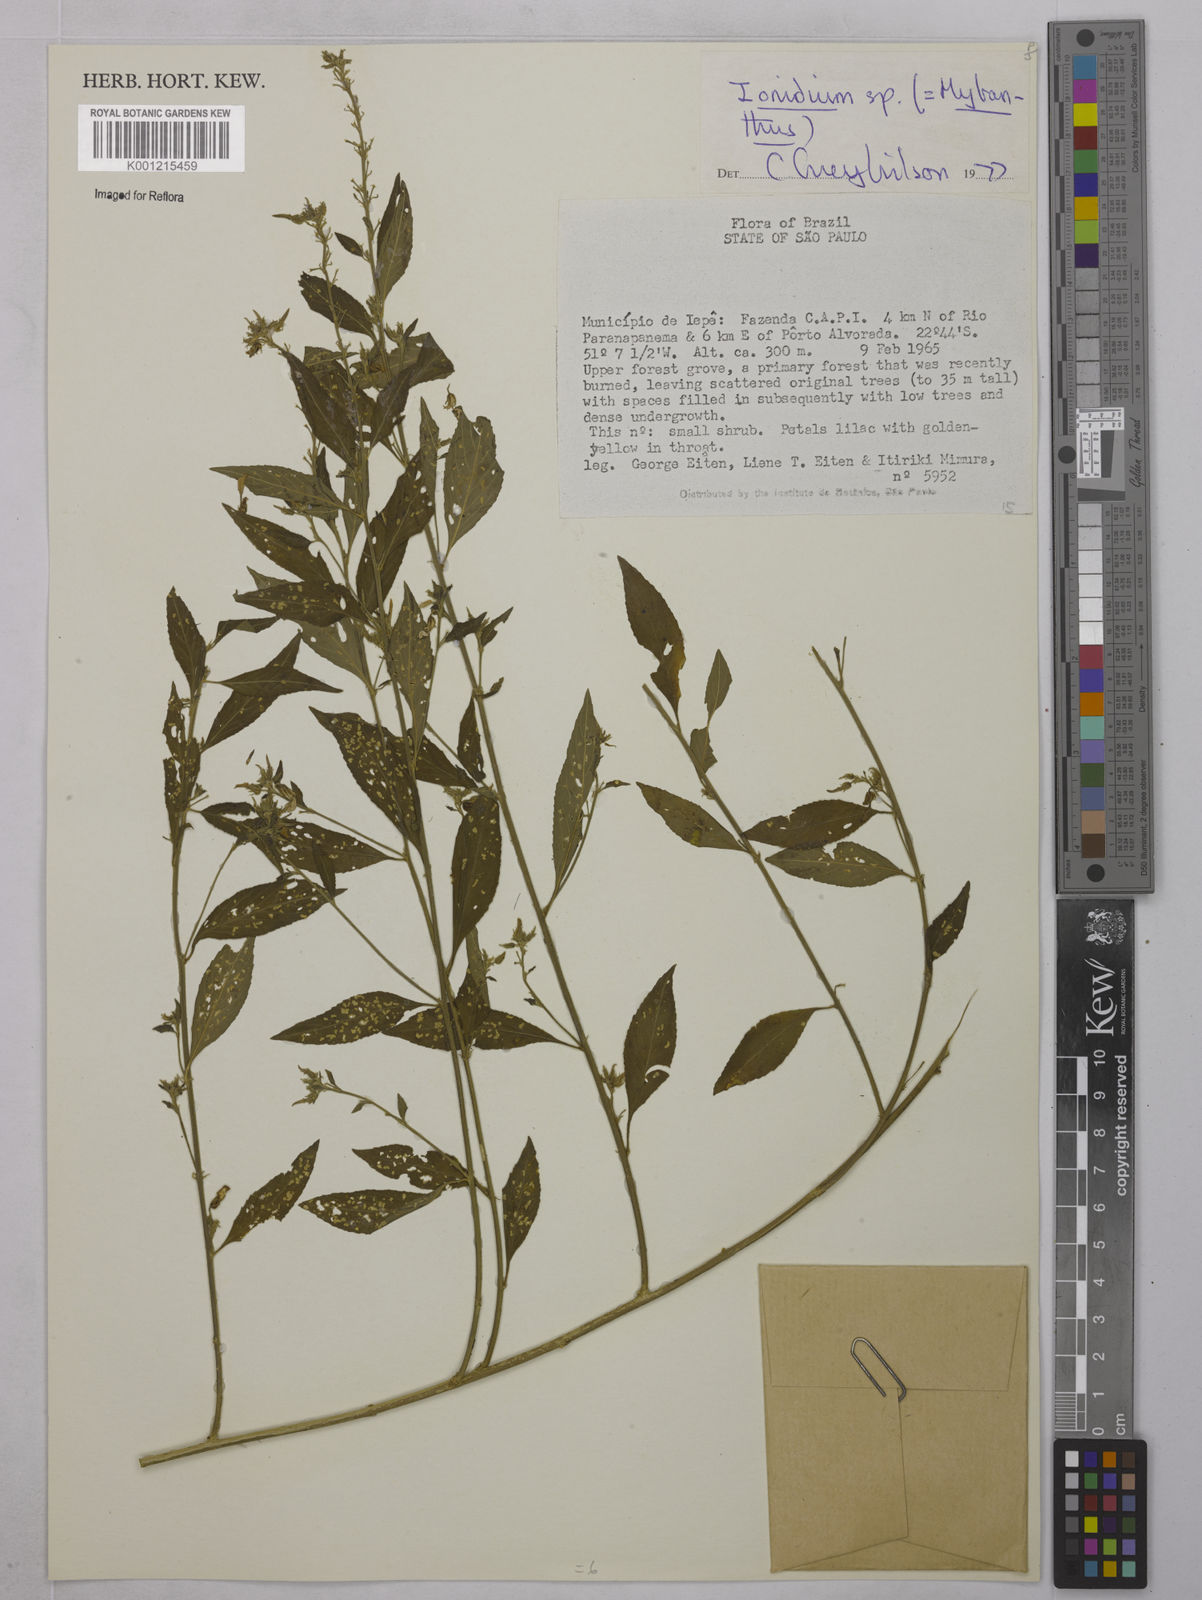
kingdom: Plantae
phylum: Tracheophyta
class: Magnoliopsida
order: Malpighiales
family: Violaceae
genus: Hybanthus
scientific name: Hybanthus
